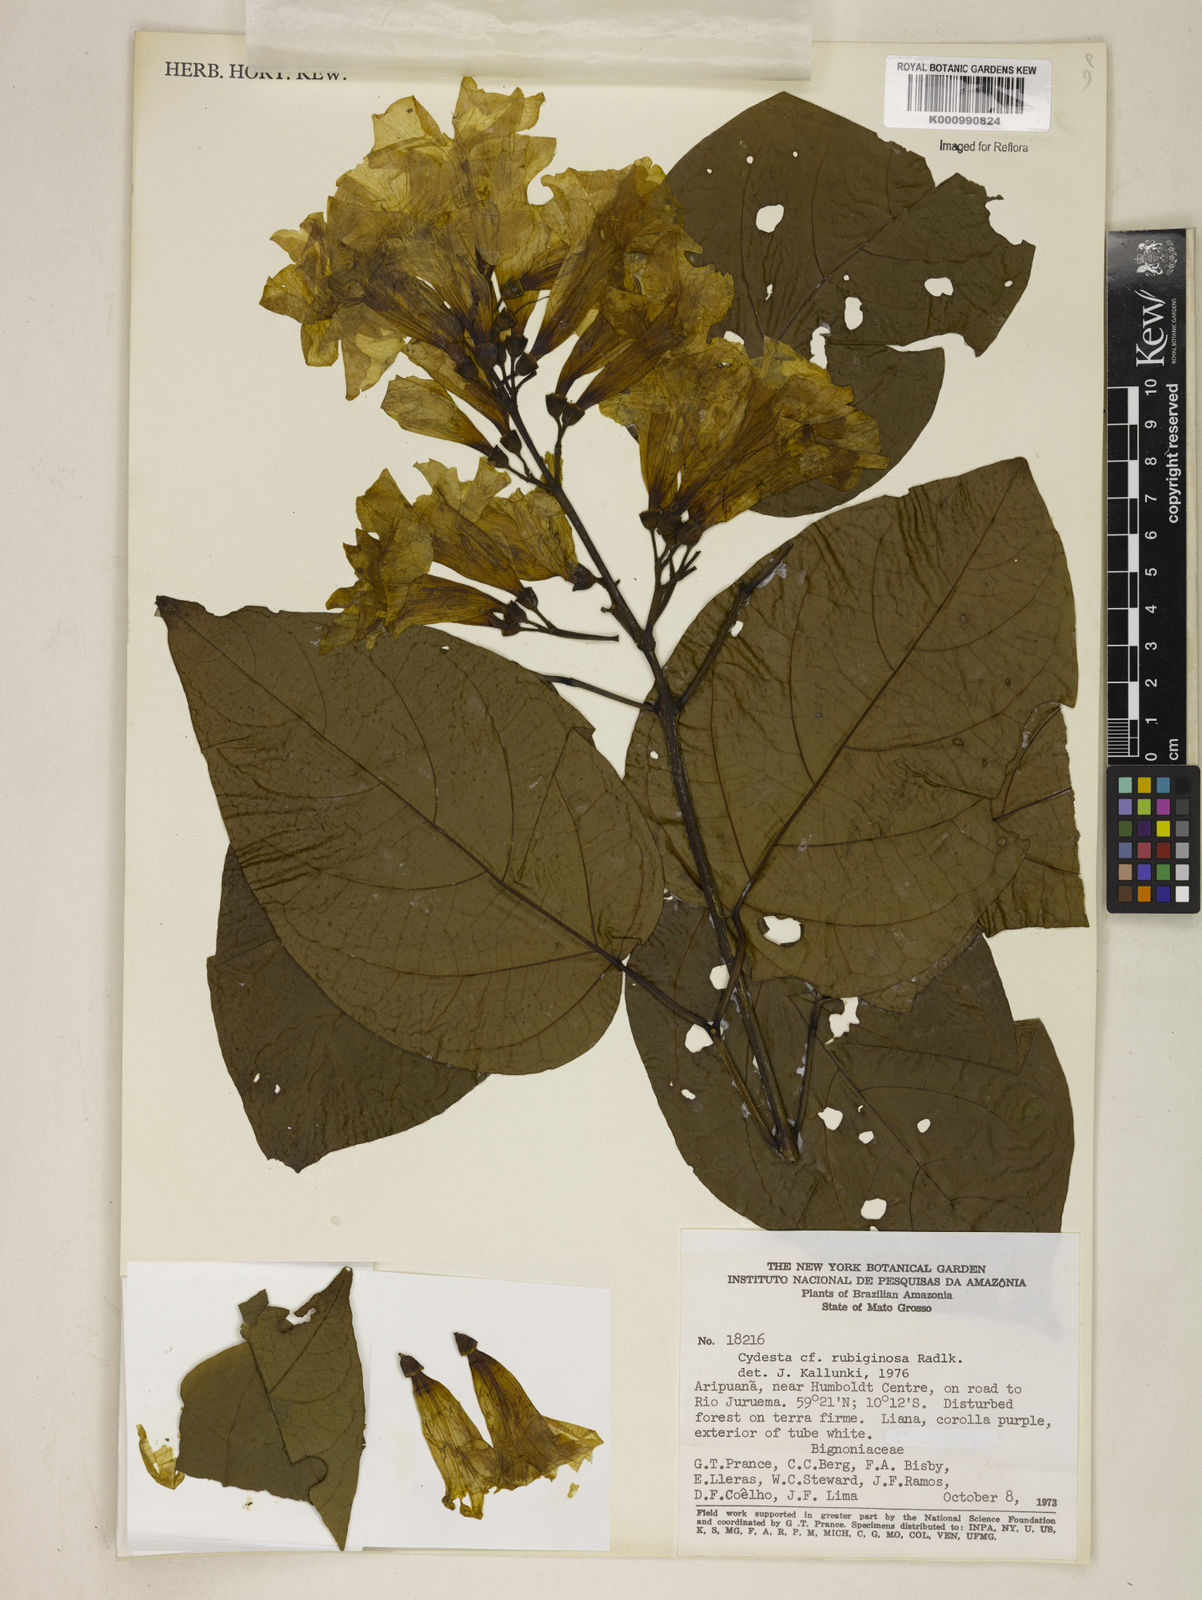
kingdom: Plantae
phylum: Tracheophyta
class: Magnoliopsida
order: Lamiales
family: Bignoniaceae
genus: Bignonia
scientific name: Bignonia
